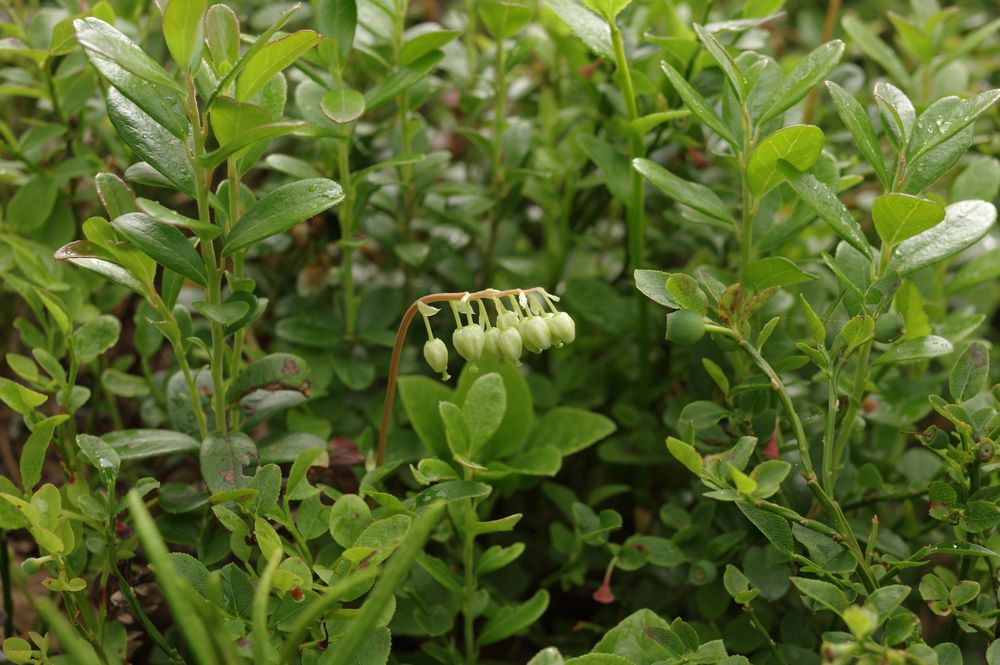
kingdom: Plantae
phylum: Tracheophyta
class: Magnoliopsida
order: Ericales
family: Ericaceae
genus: Orthilia
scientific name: Orthilia secunda
